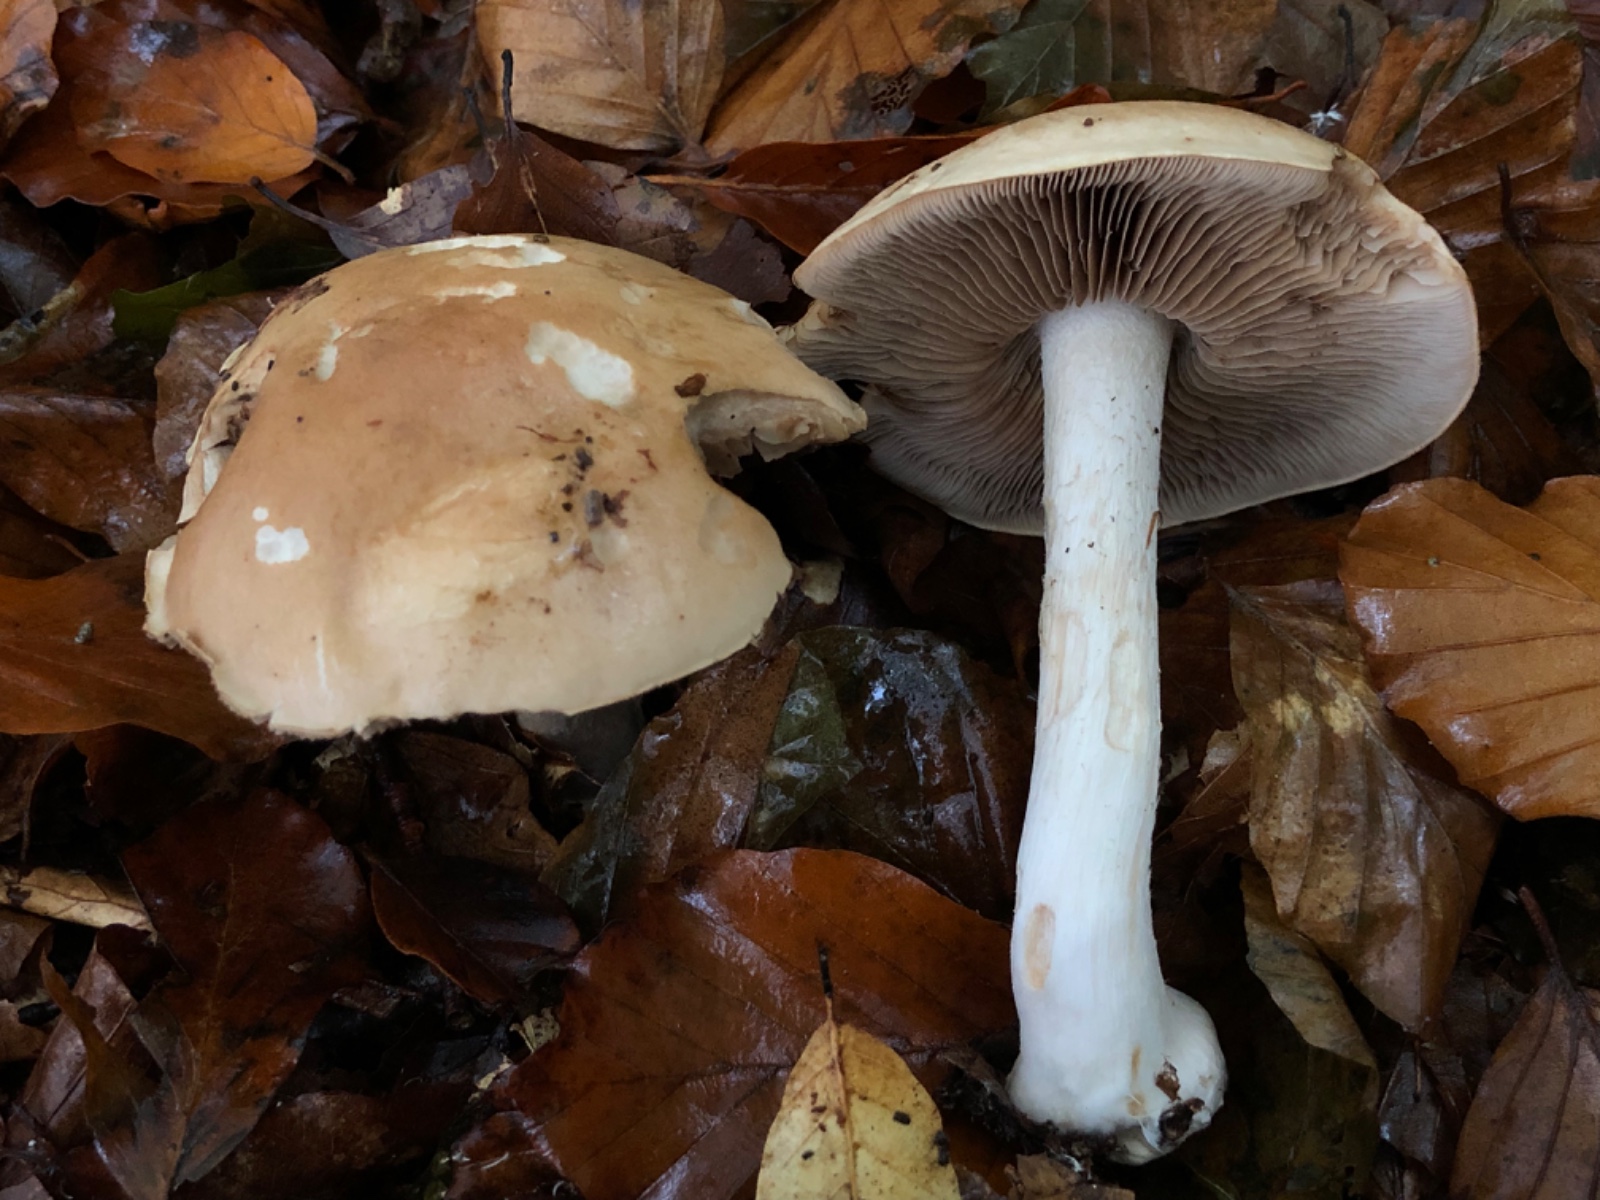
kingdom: Fungi
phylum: Basidiomycota
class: Agaricomycetes
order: Agaricales
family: Hymenogastraceae
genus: Hebeloma
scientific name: Hebeloma sinapizans
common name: ræddike-tåreblad
